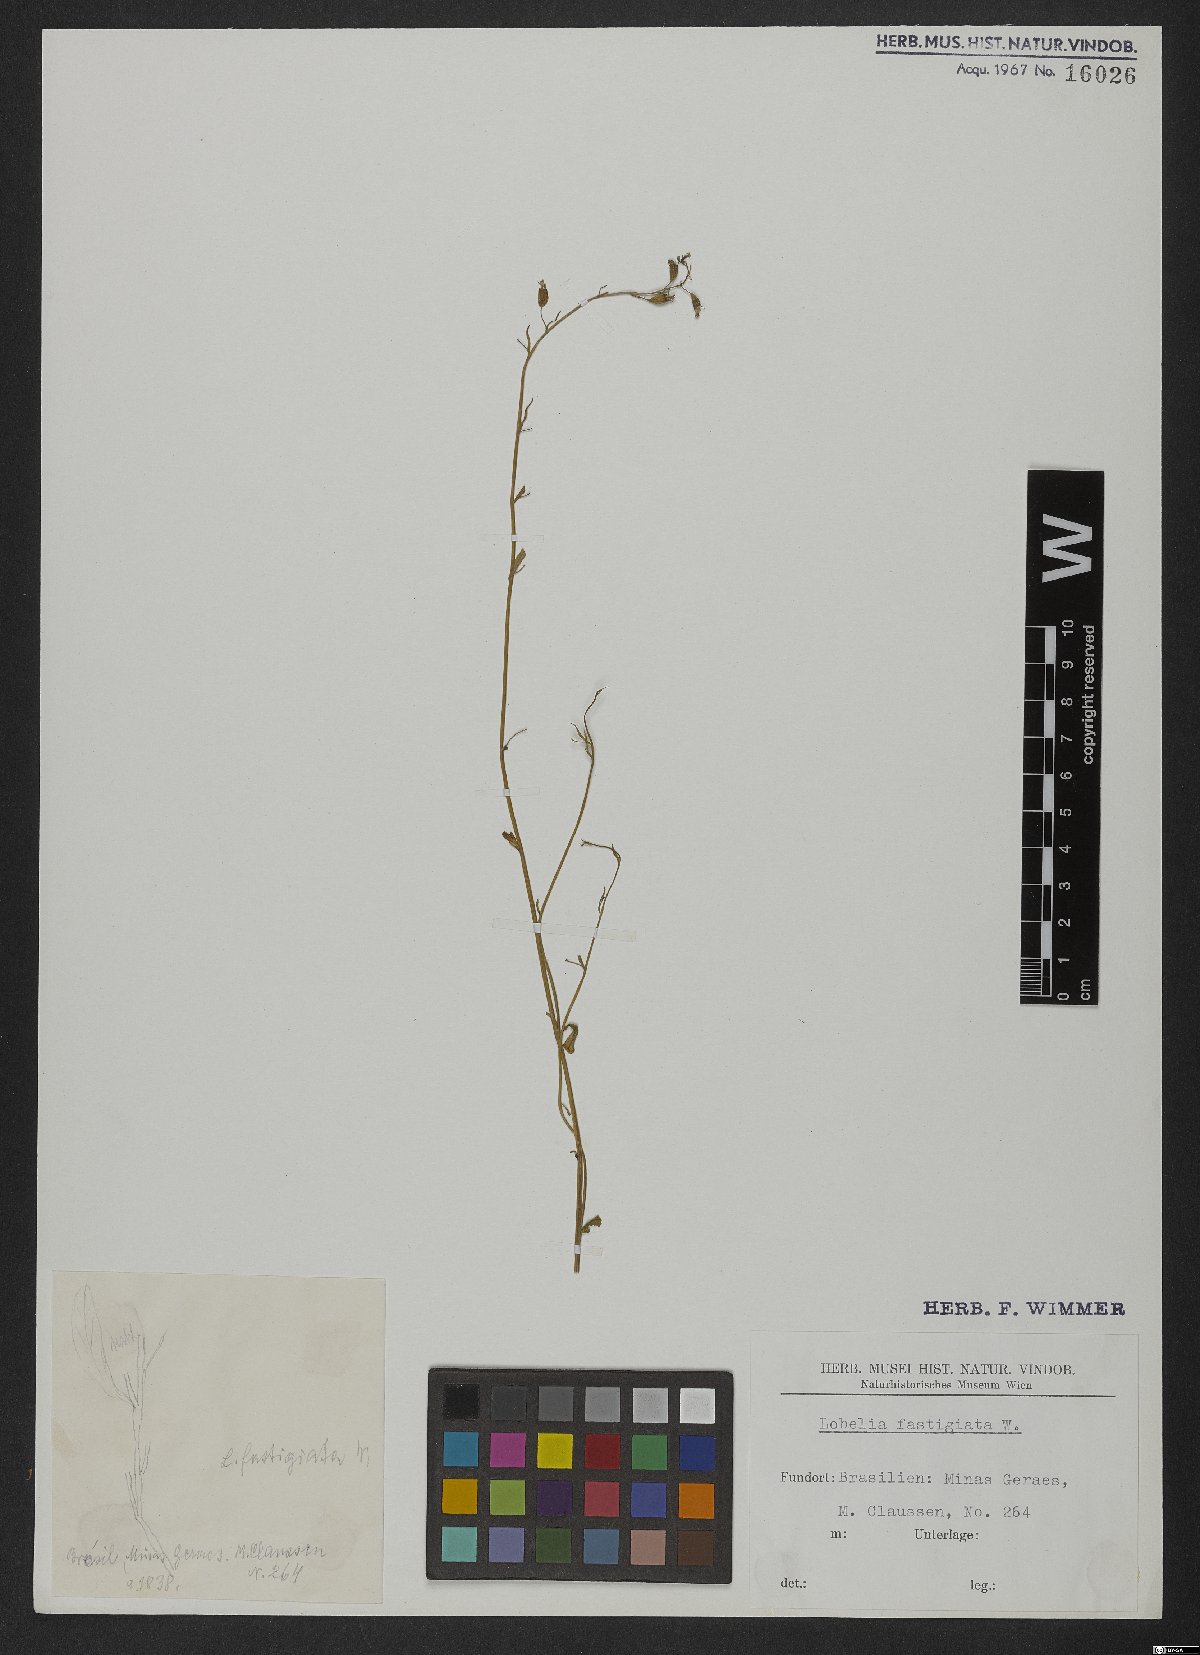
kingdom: Plantae
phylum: Tracheophyta
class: Magnoliopsida
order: Asterales
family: Campanulaceae
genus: Lobelia
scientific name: Lobelia fastigiata
